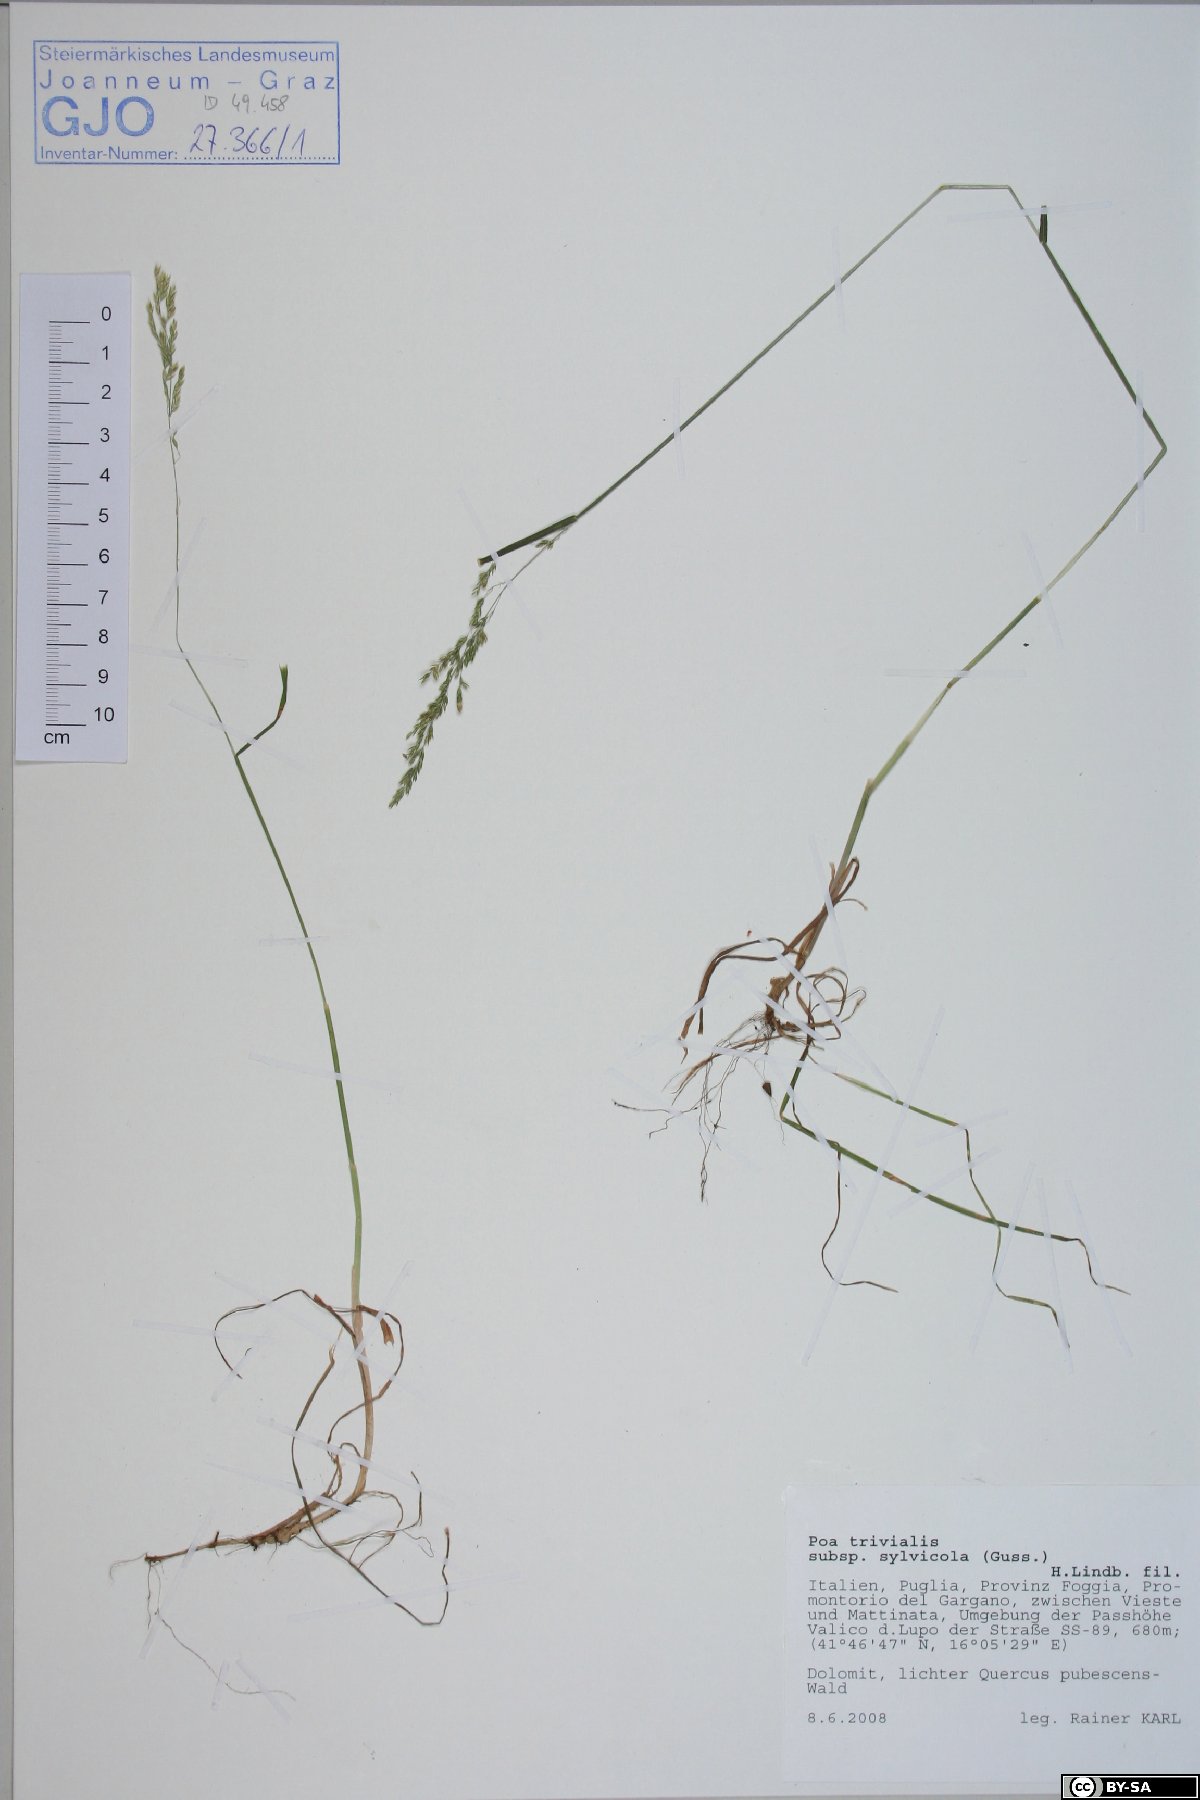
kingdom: Plantae
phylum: Tracheophyta
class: Liliopsida
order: Poales
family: Poaceae
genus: Poa
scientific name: Poa trivialis
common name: Rough bluegrass
